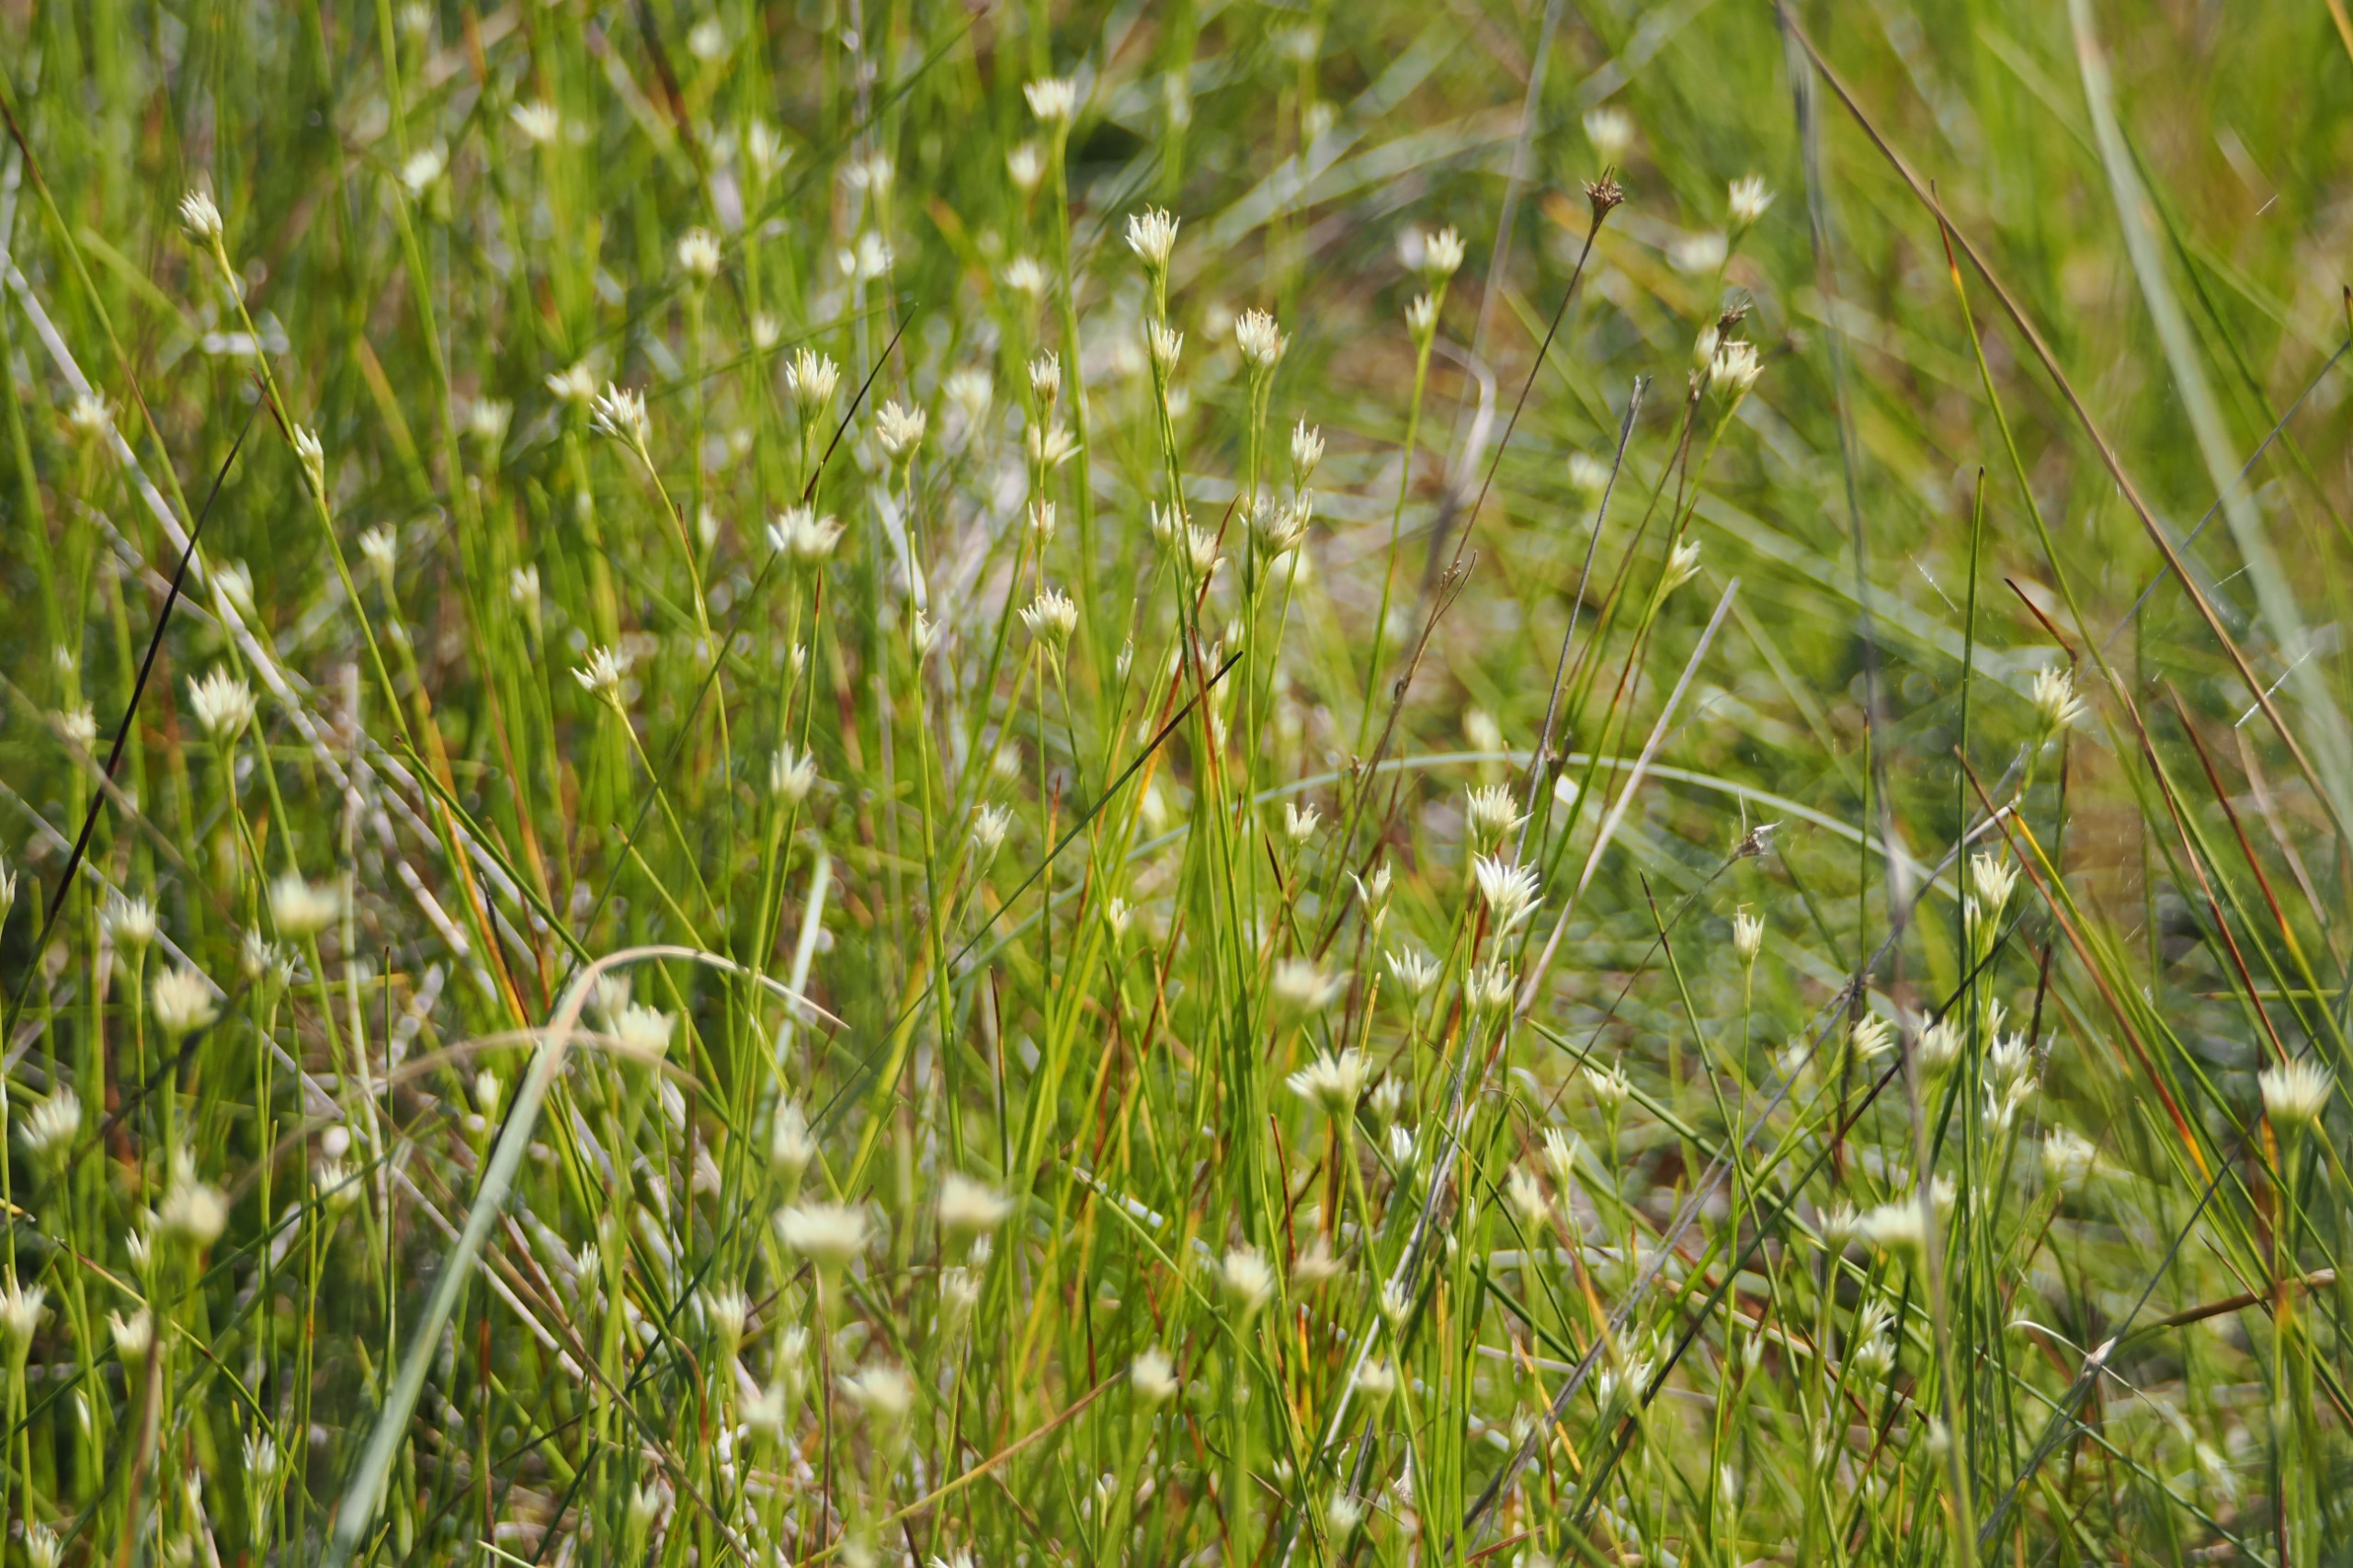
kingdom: Plantae
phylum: Tracheophyta
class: Liliopsida
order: Poales
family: Cyperaceae
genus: Rhynchospora
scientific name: Rhynchospora alba
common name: Hvid næbfrø
